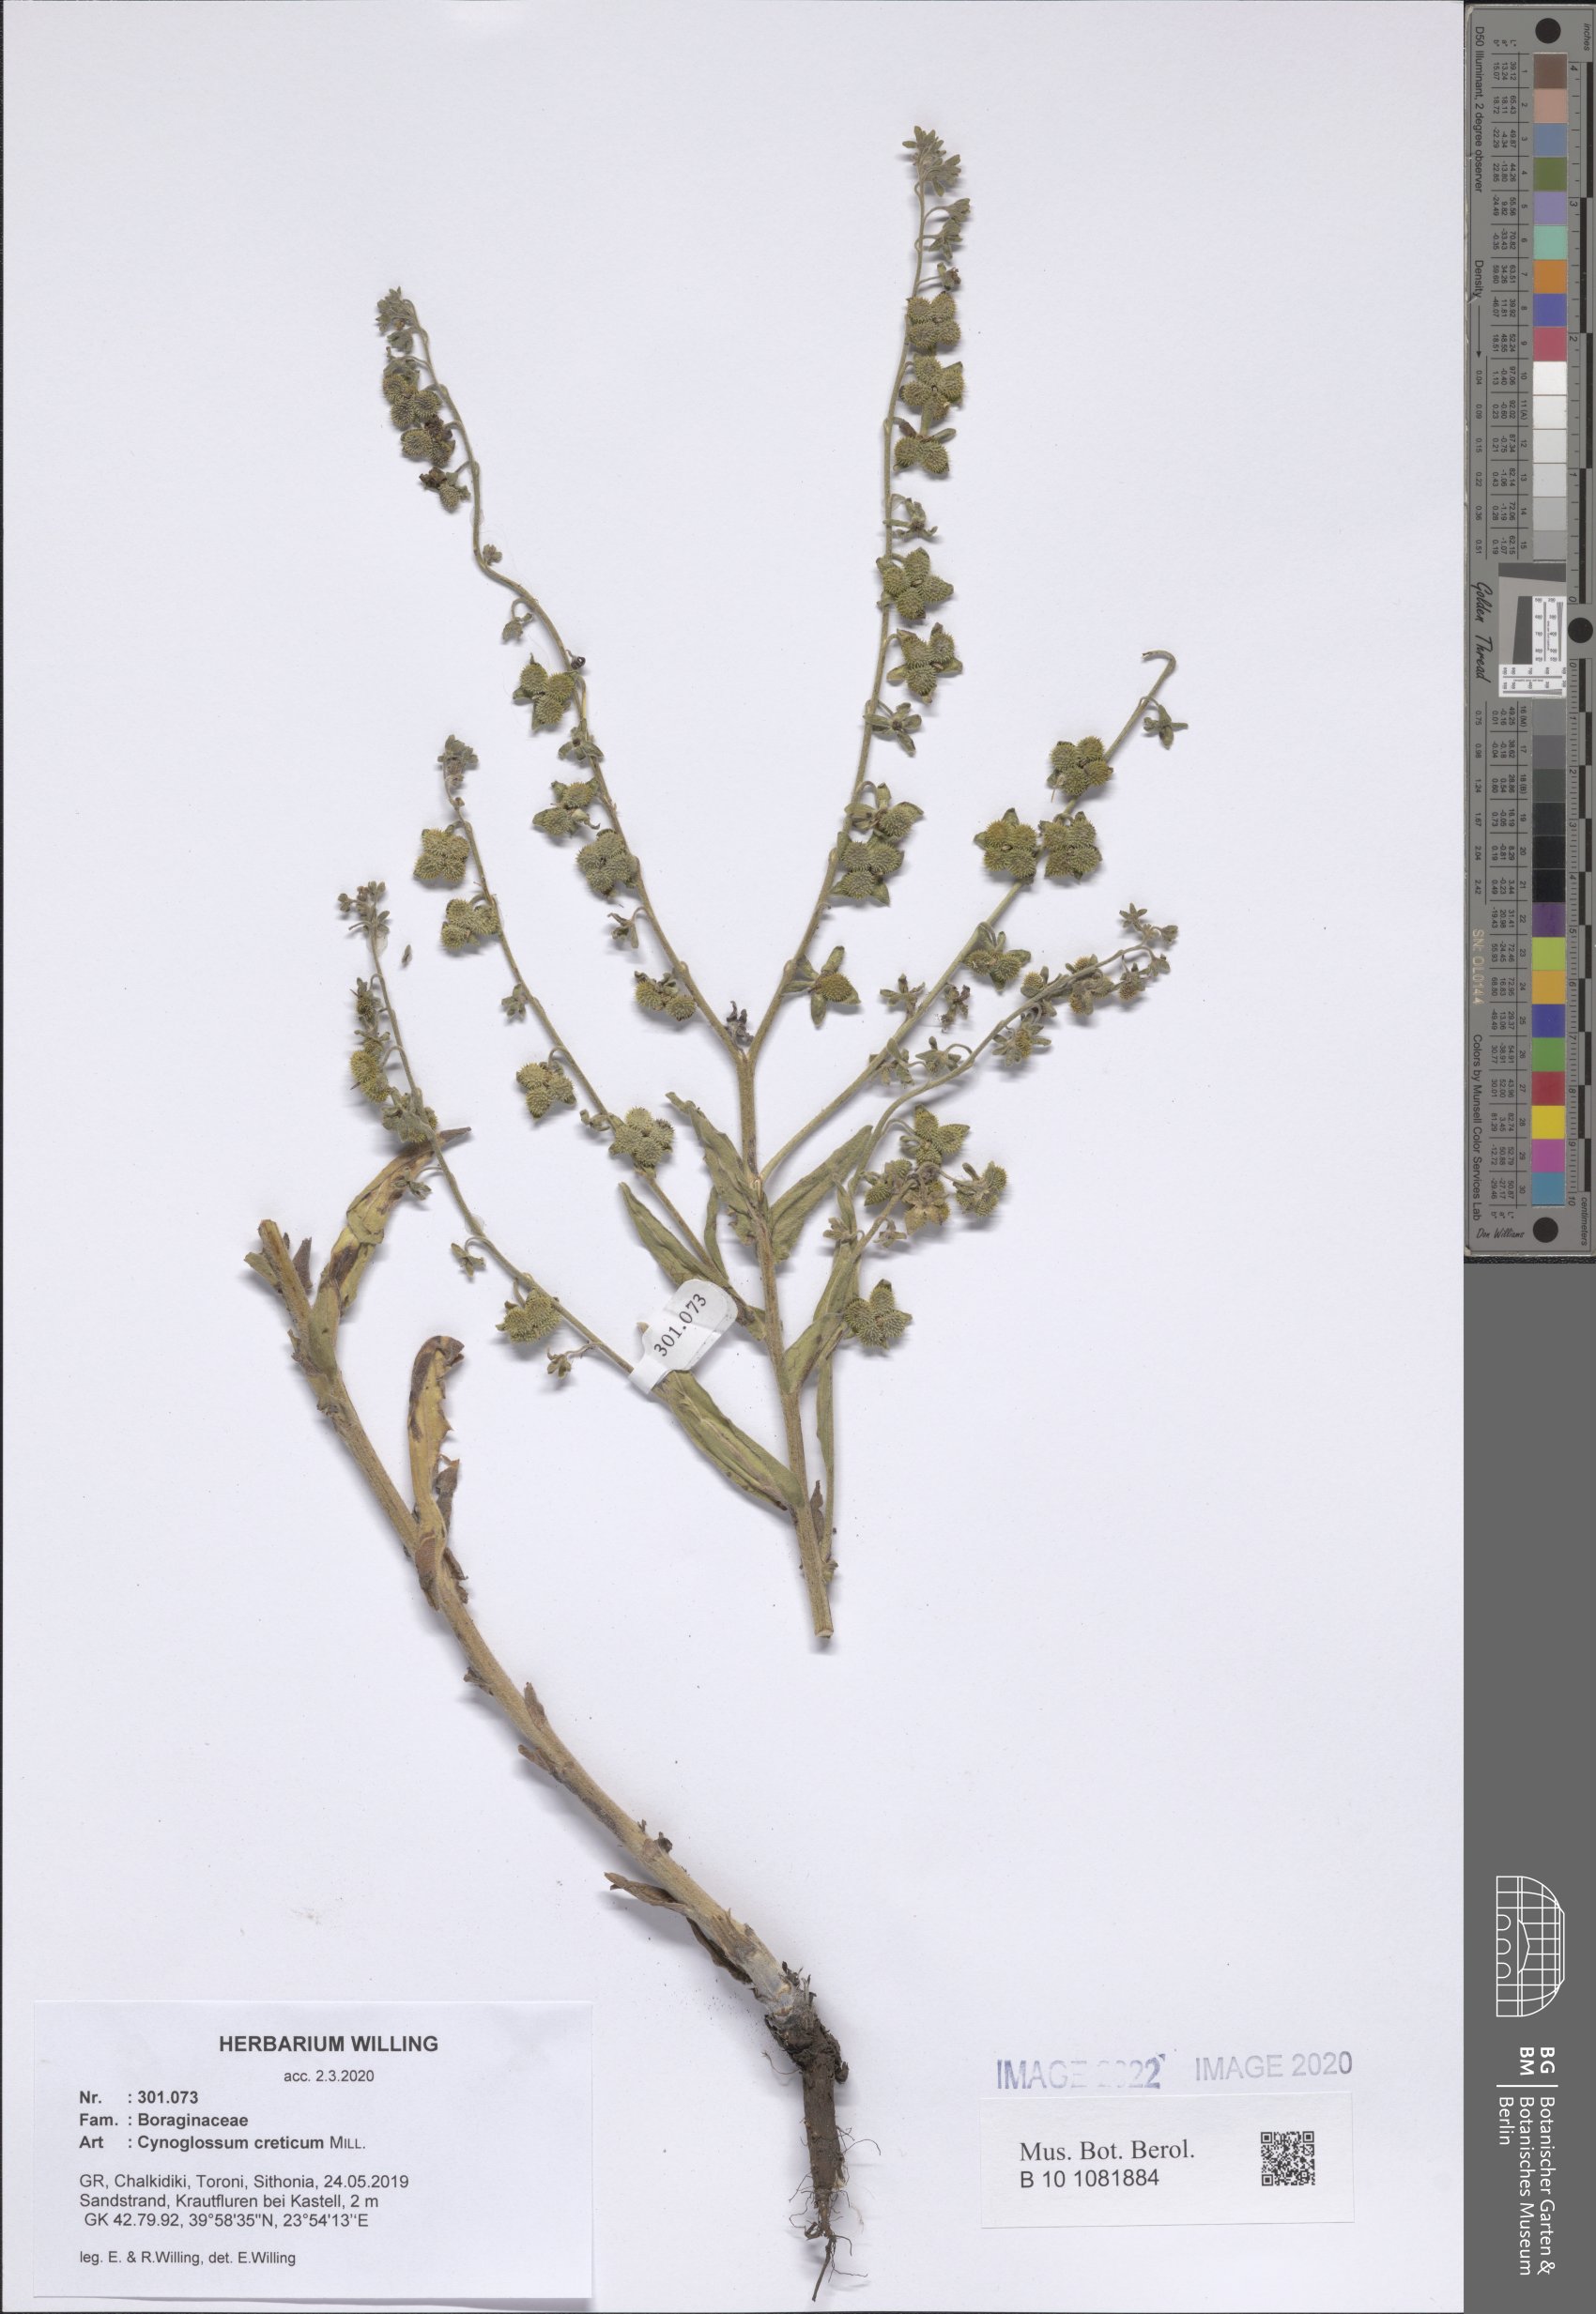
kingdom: Plantae
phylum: Tracheophyta
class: Magnoliopsida
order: Boraginales
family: Boraginaceae
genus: Cynoglossum
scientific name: Cynoglossum creticum
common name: Blue hound's tongue
